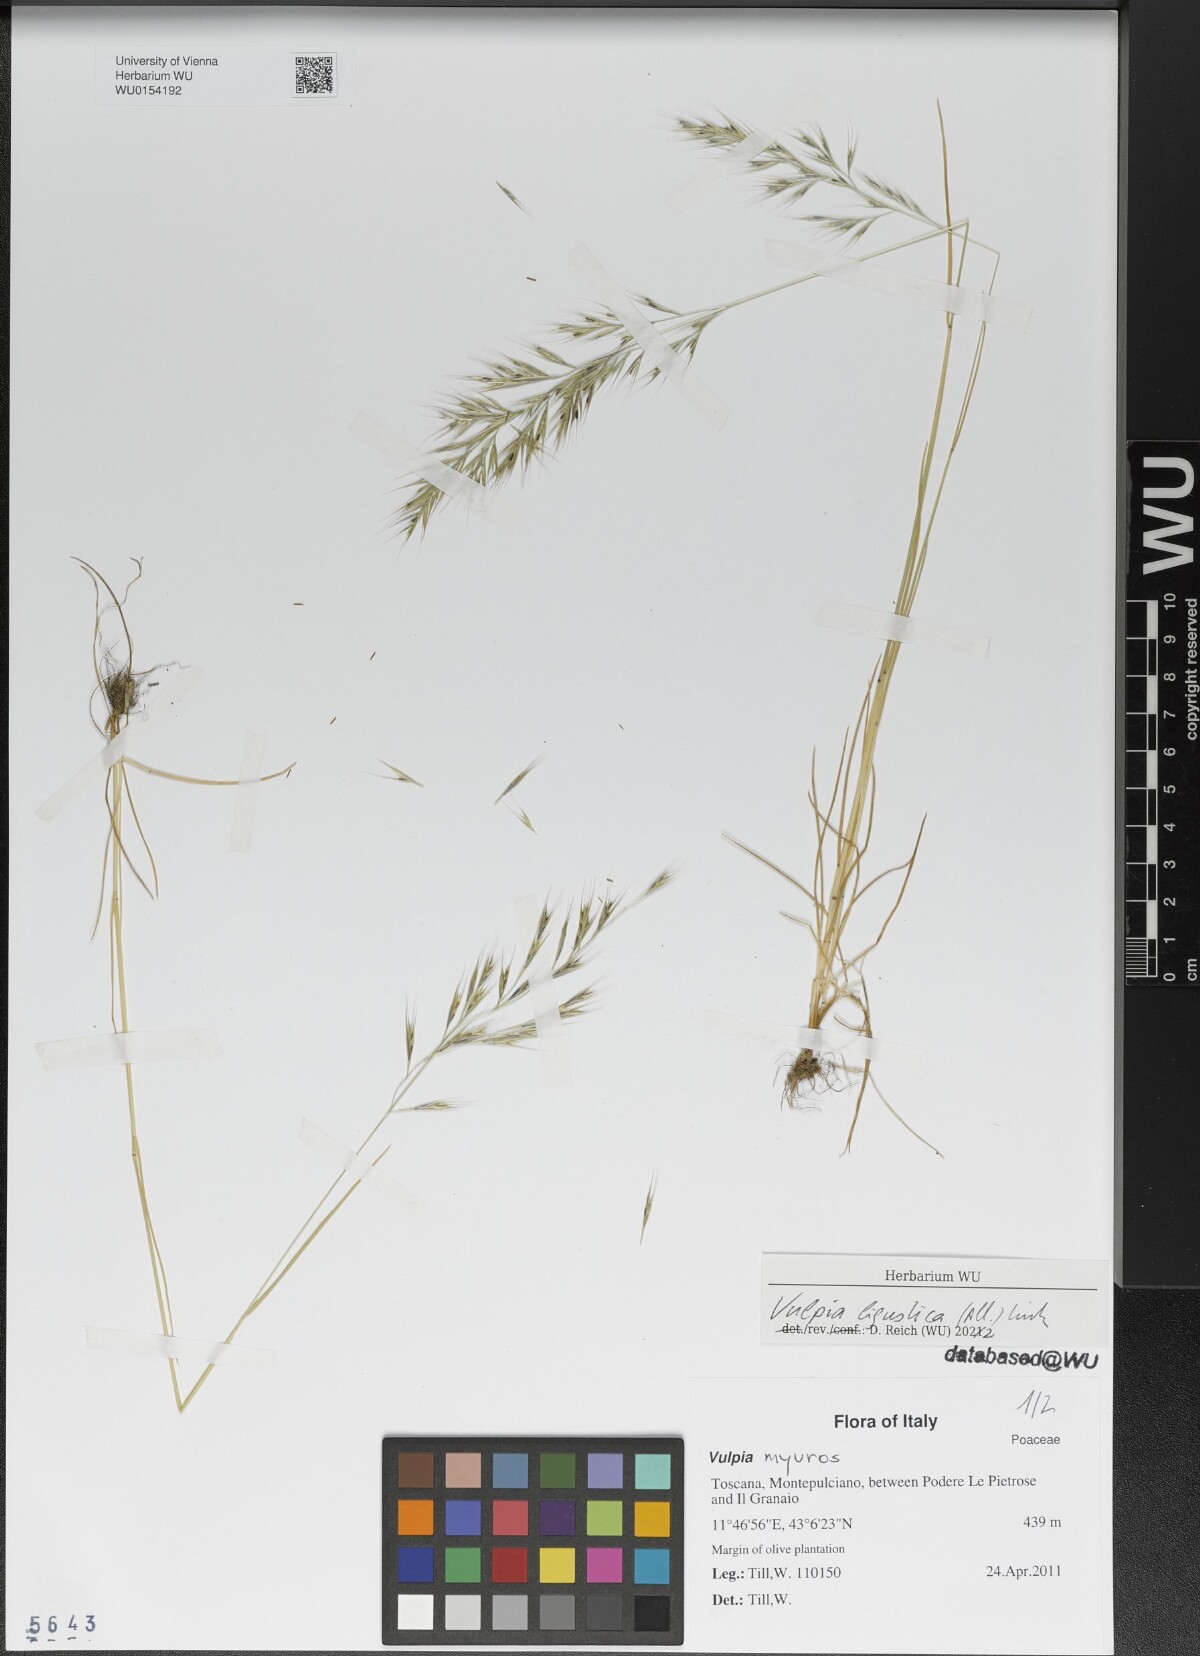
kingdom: Plantae
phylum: Tracheophyta
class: Liliopsida
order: Poales
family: Poaceae
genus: Festuca
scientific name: Festuca ligustica
